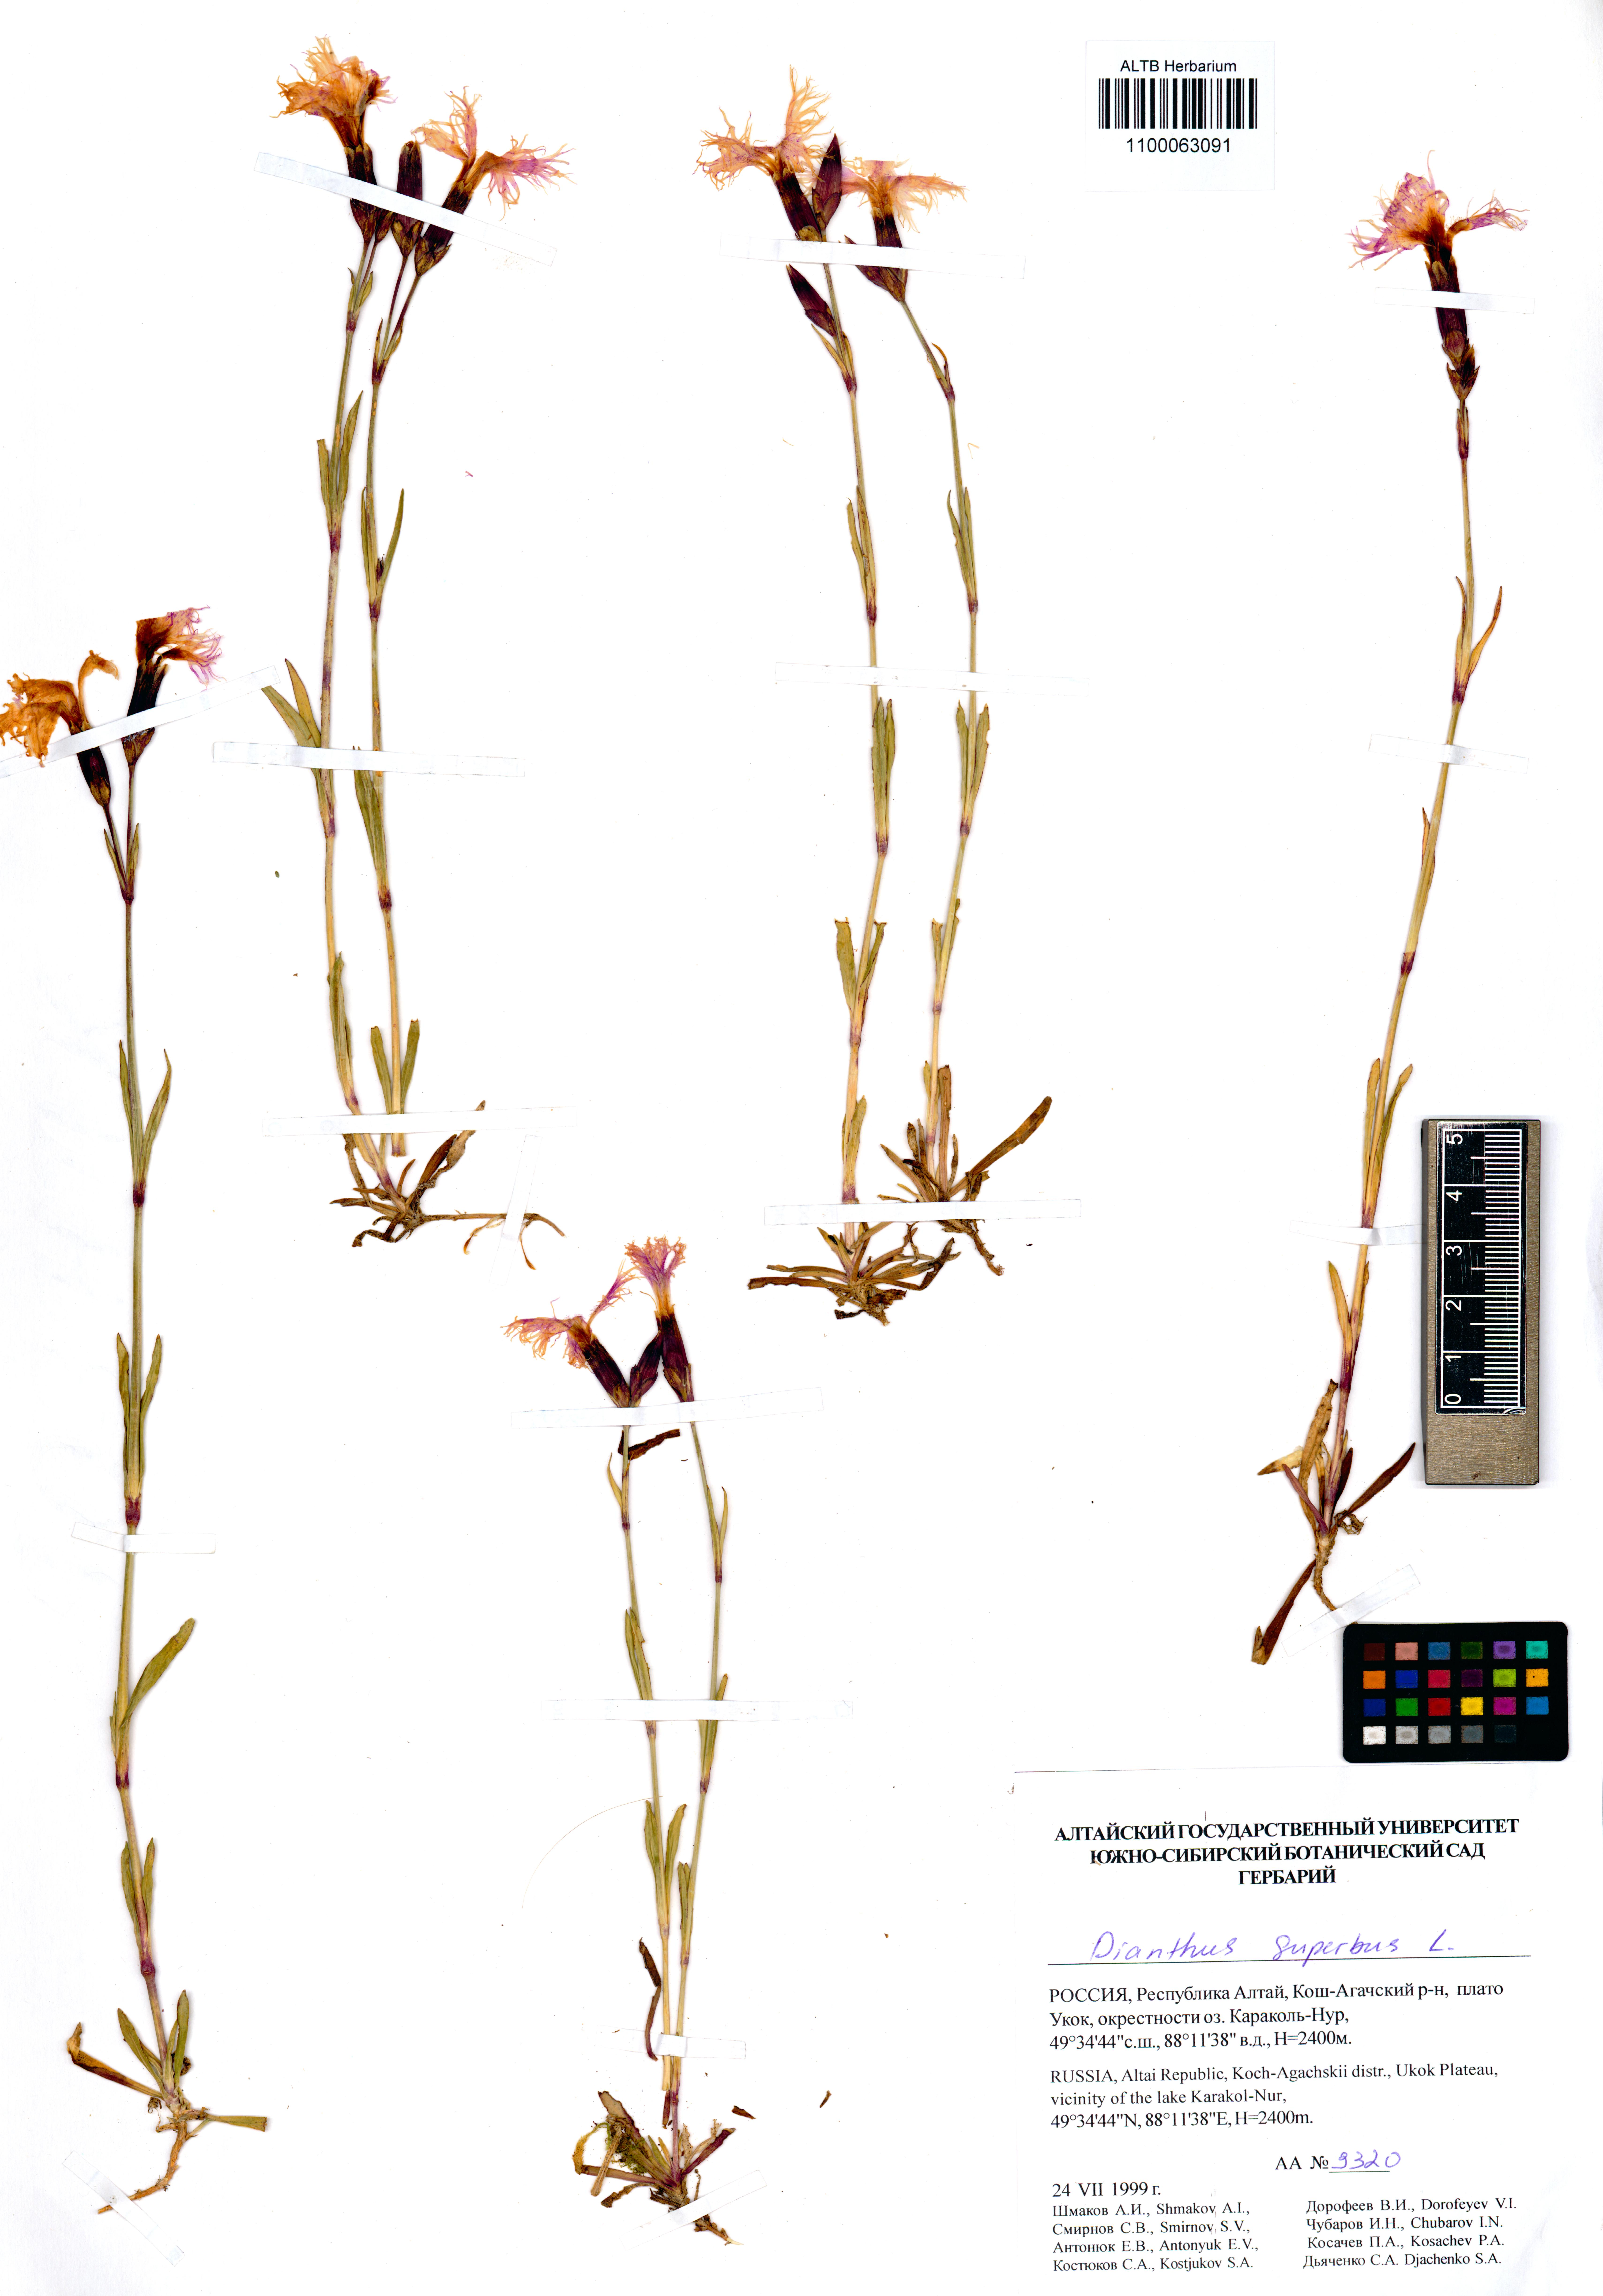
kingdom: Plantae
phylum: Tracheophyta
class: Magnoliopsida
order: Caryophyllales
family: Caryophyllaceae
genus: Dianthus
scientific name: Dianthus superbus
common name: Fringed pink
